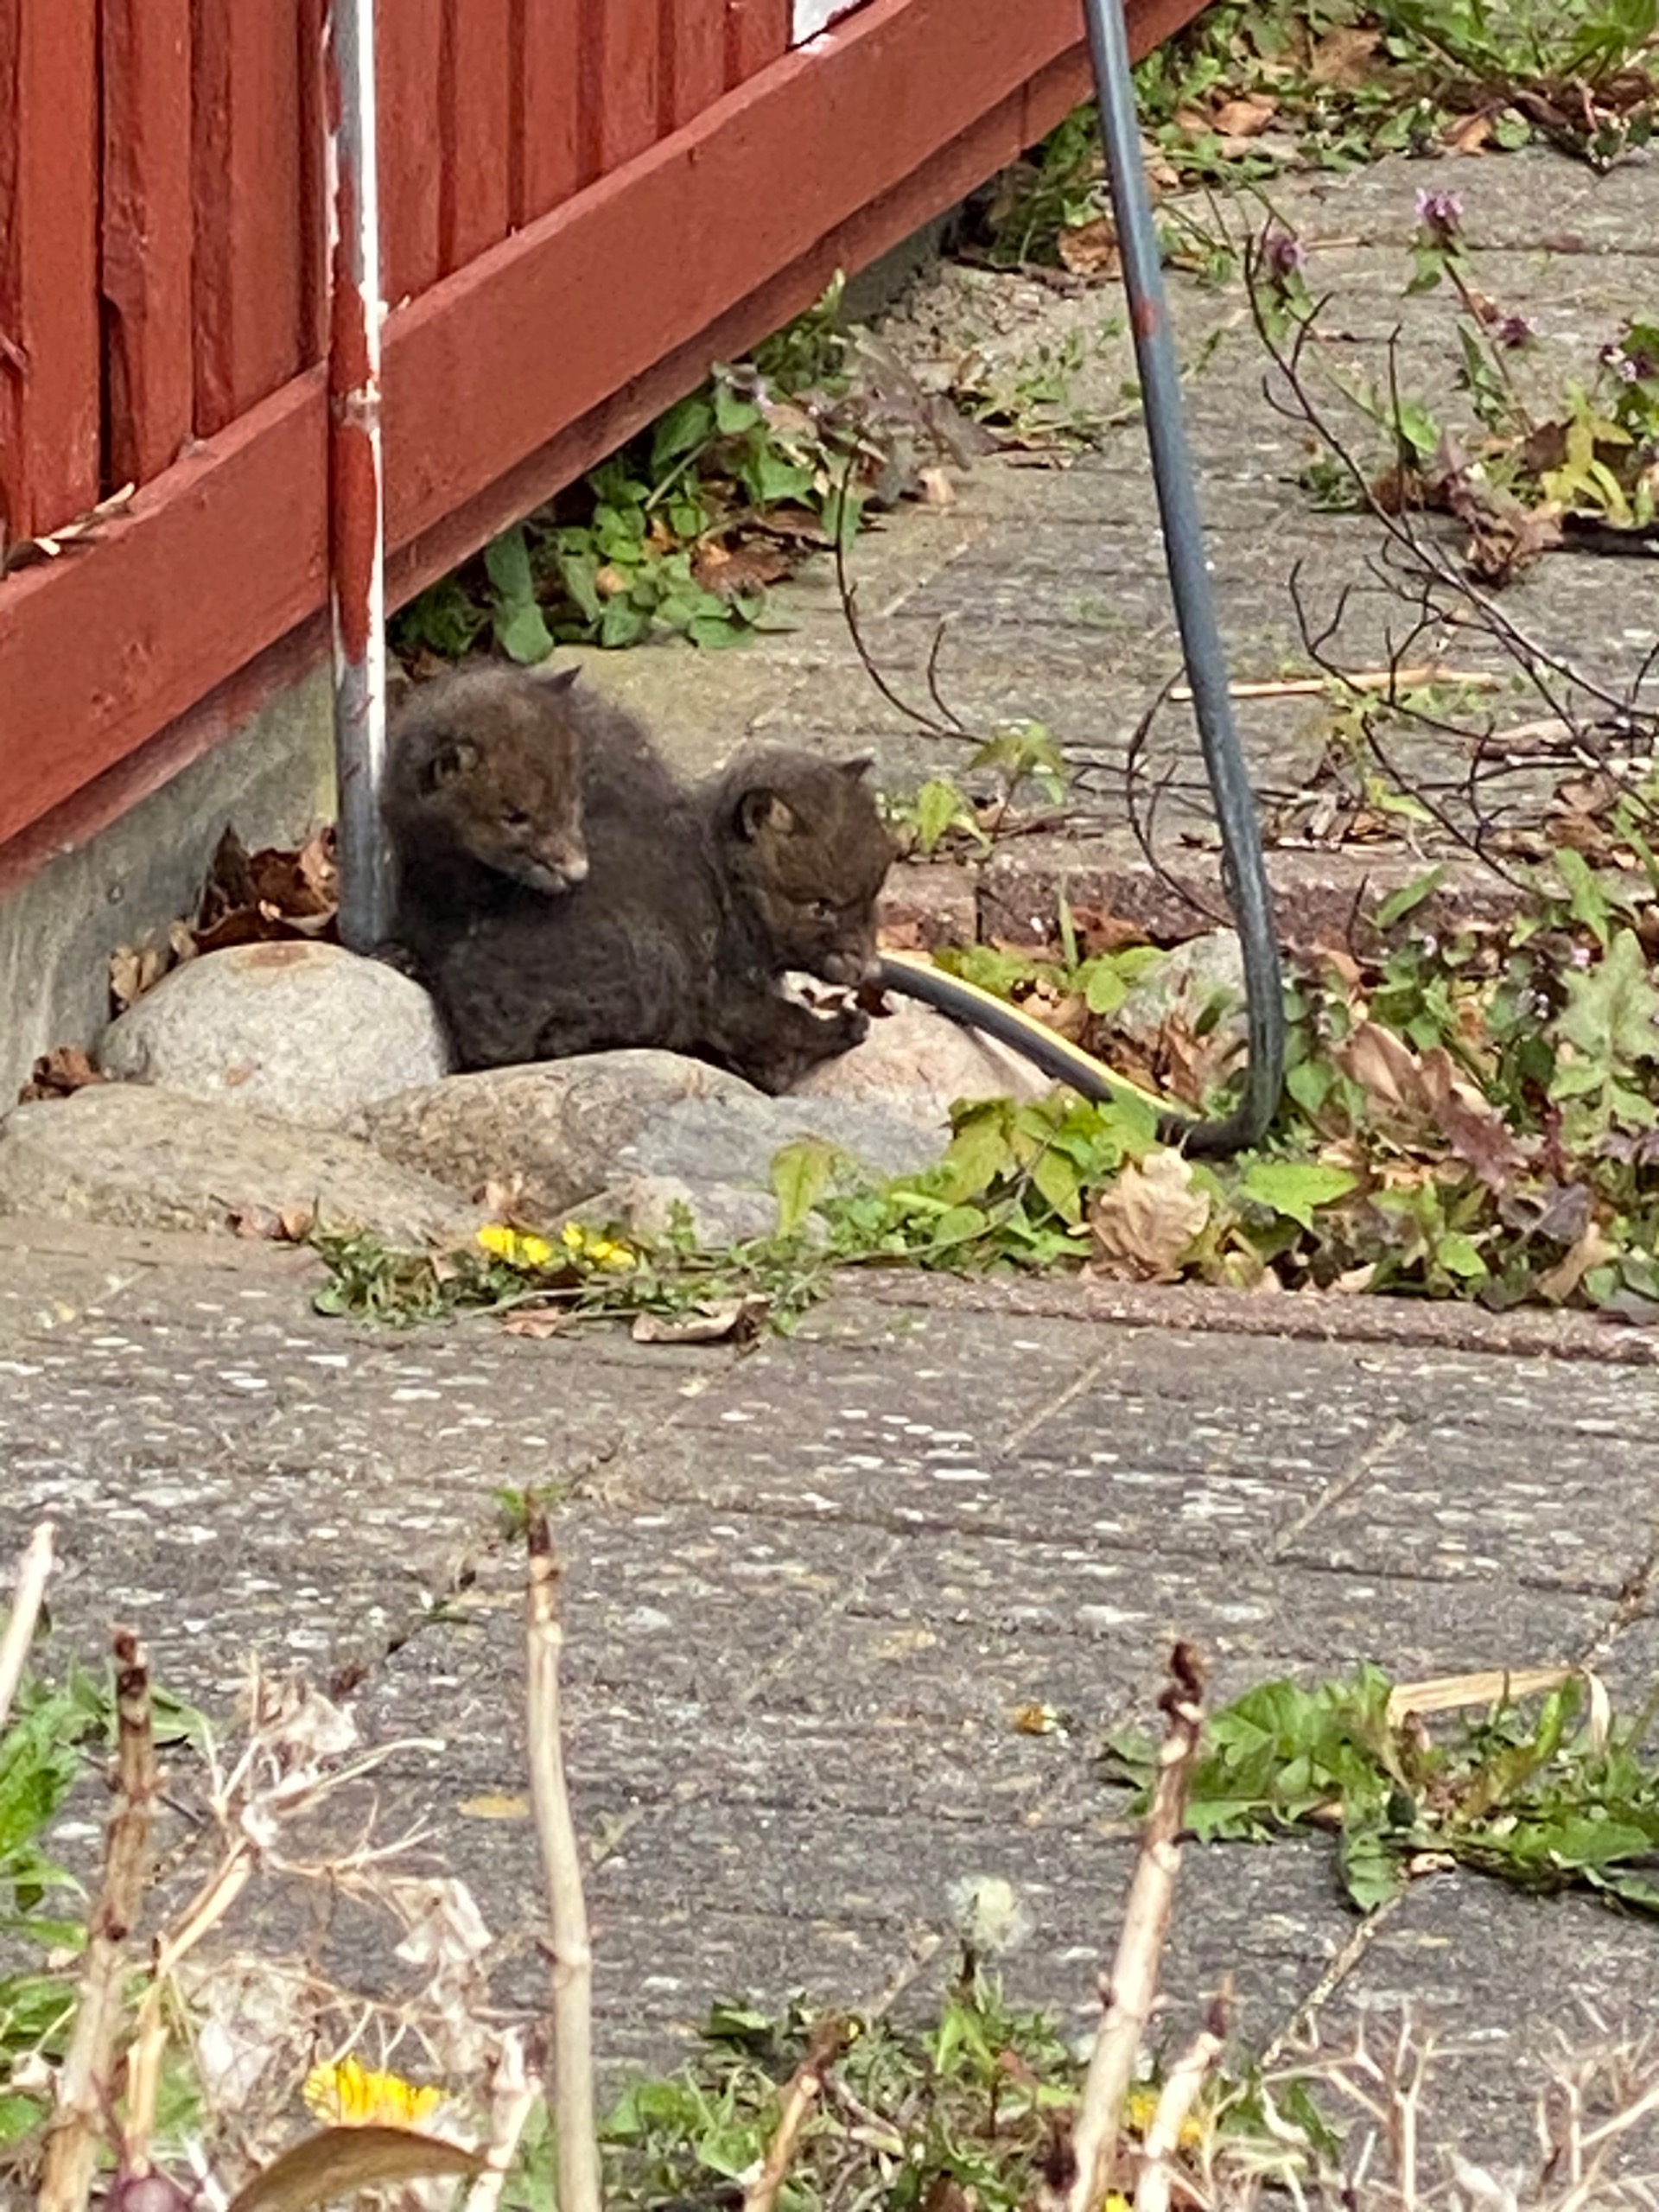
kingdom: Animalia
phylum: Chordata
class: Mammalia
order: Carnivora
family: Canidae
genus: Vulpes
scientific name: Vulpes vulpes
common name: Ræv
